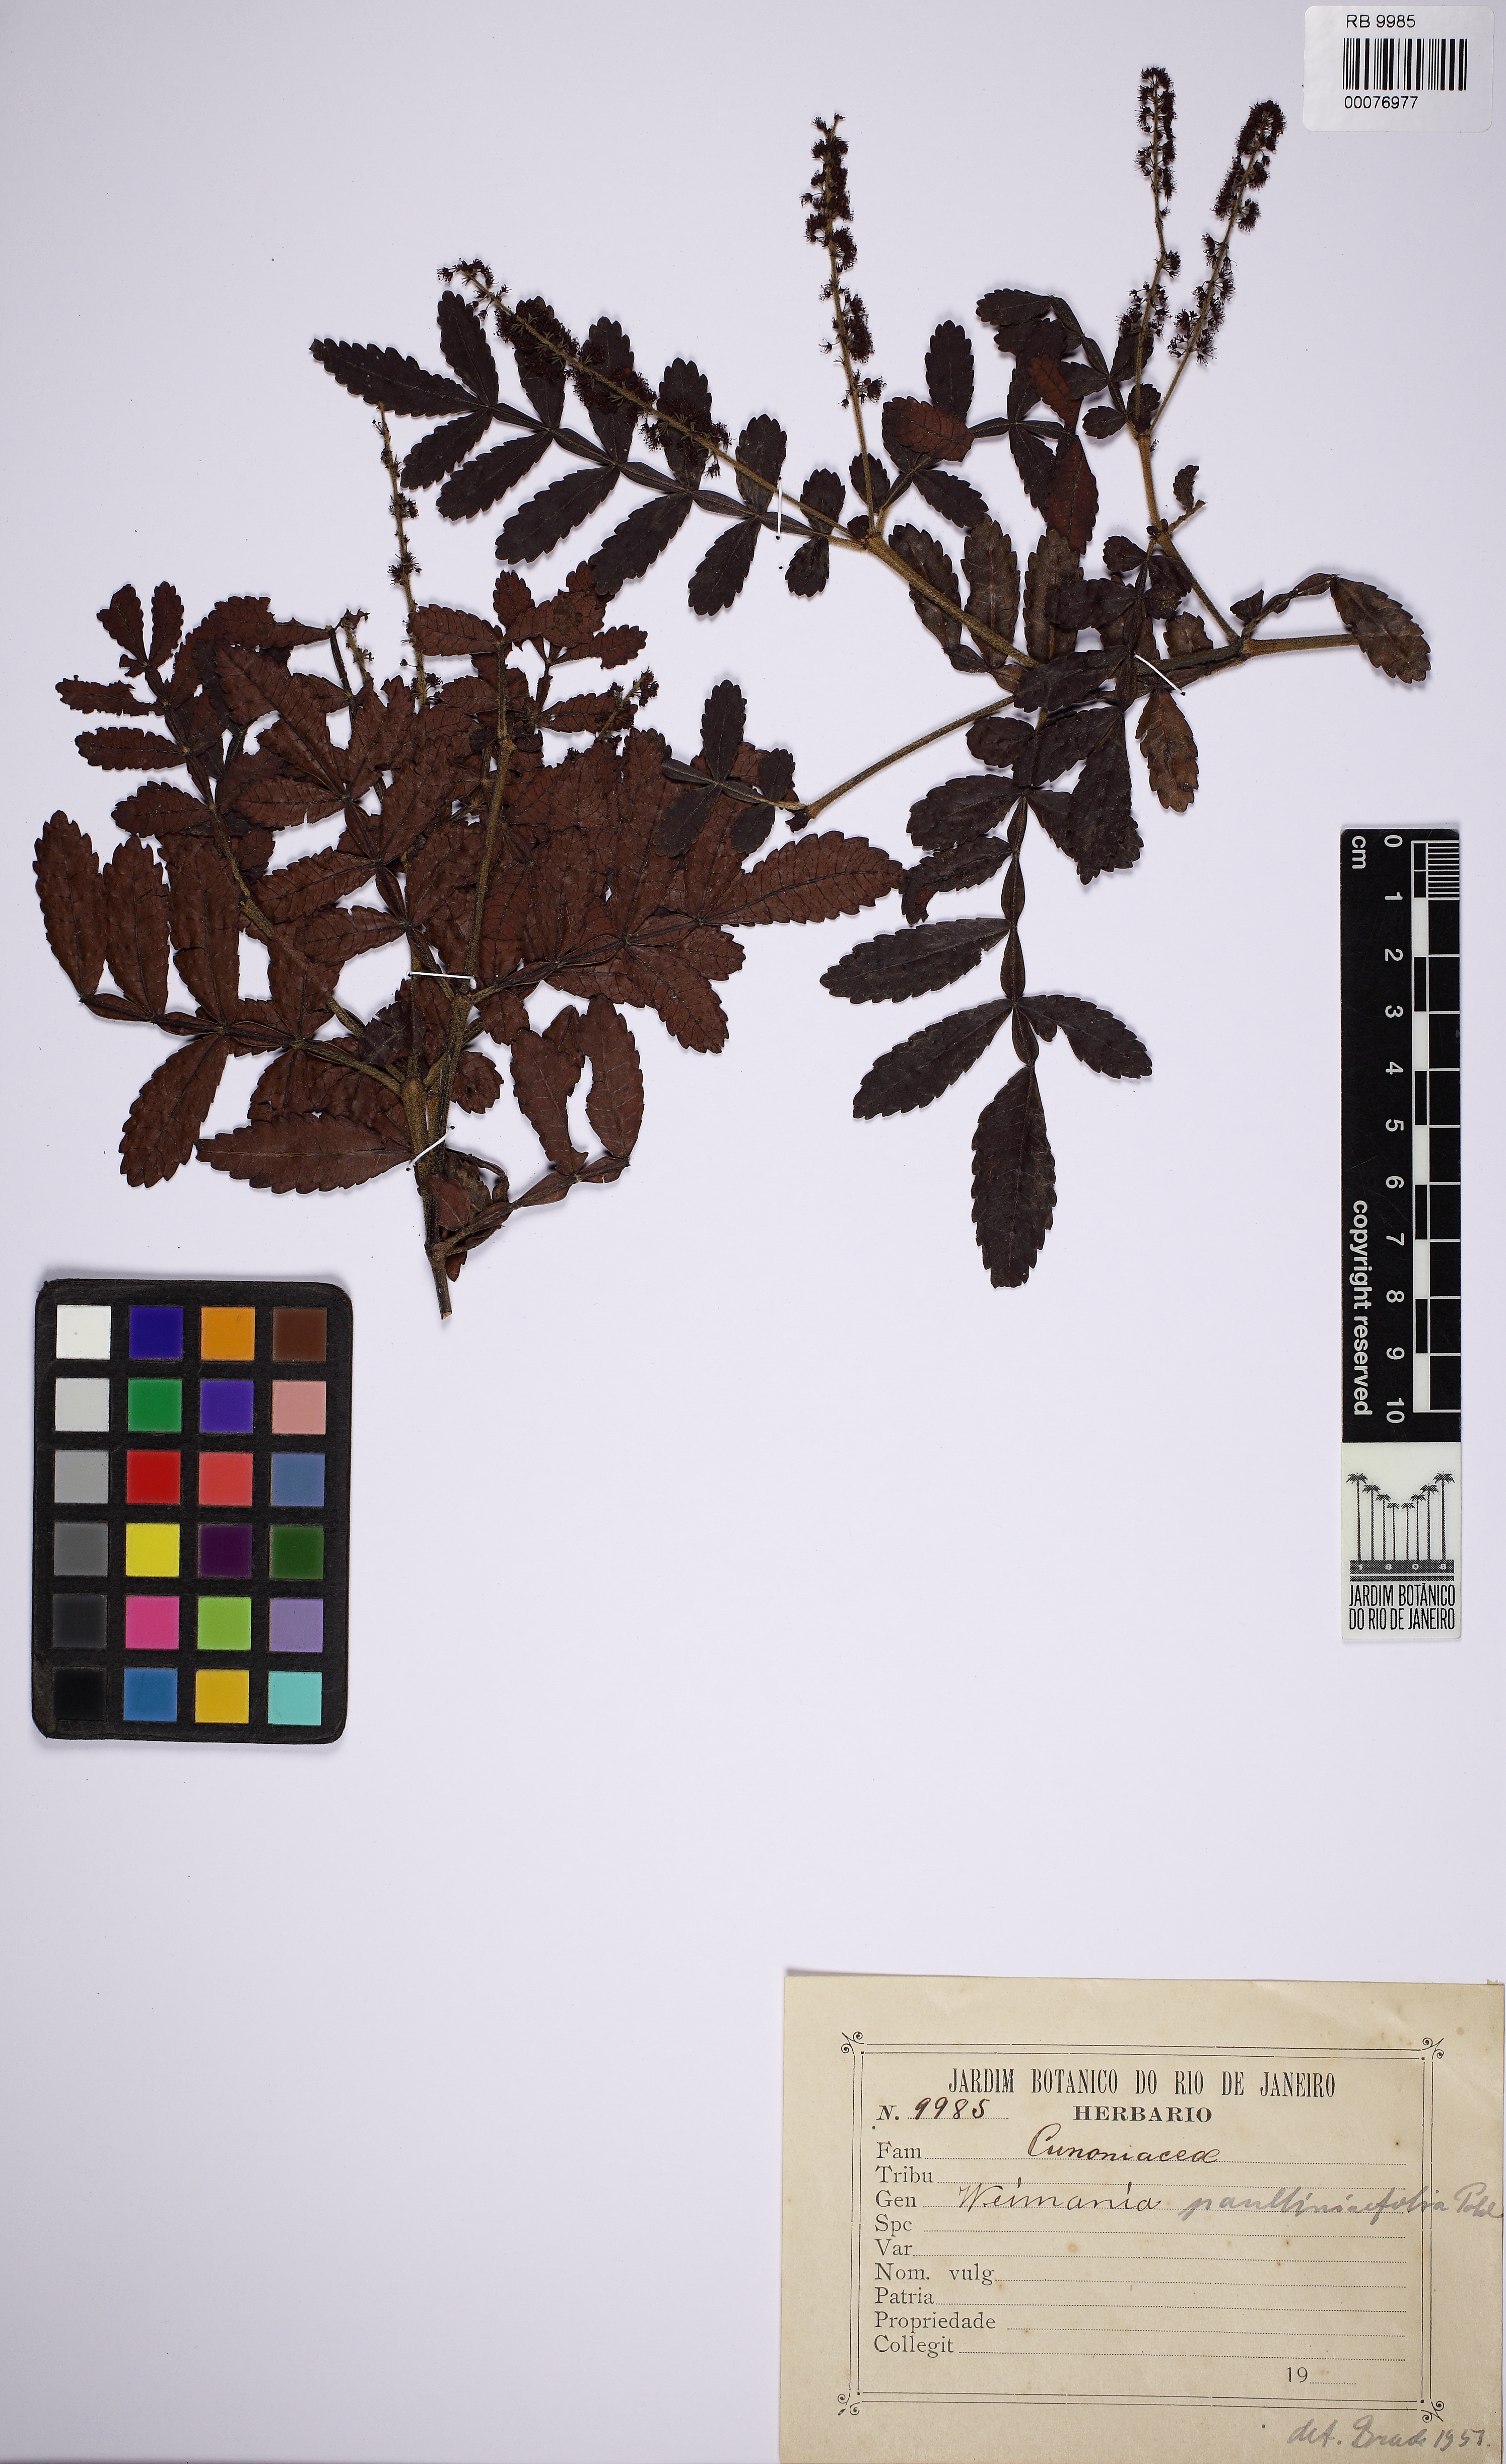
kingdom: Plantae
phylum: Tracheophyta
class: Magnoliopsida
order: Oxalidales
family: Cunoniaceae
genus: Weinmannia
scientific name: Weinmannia paullinifolia
